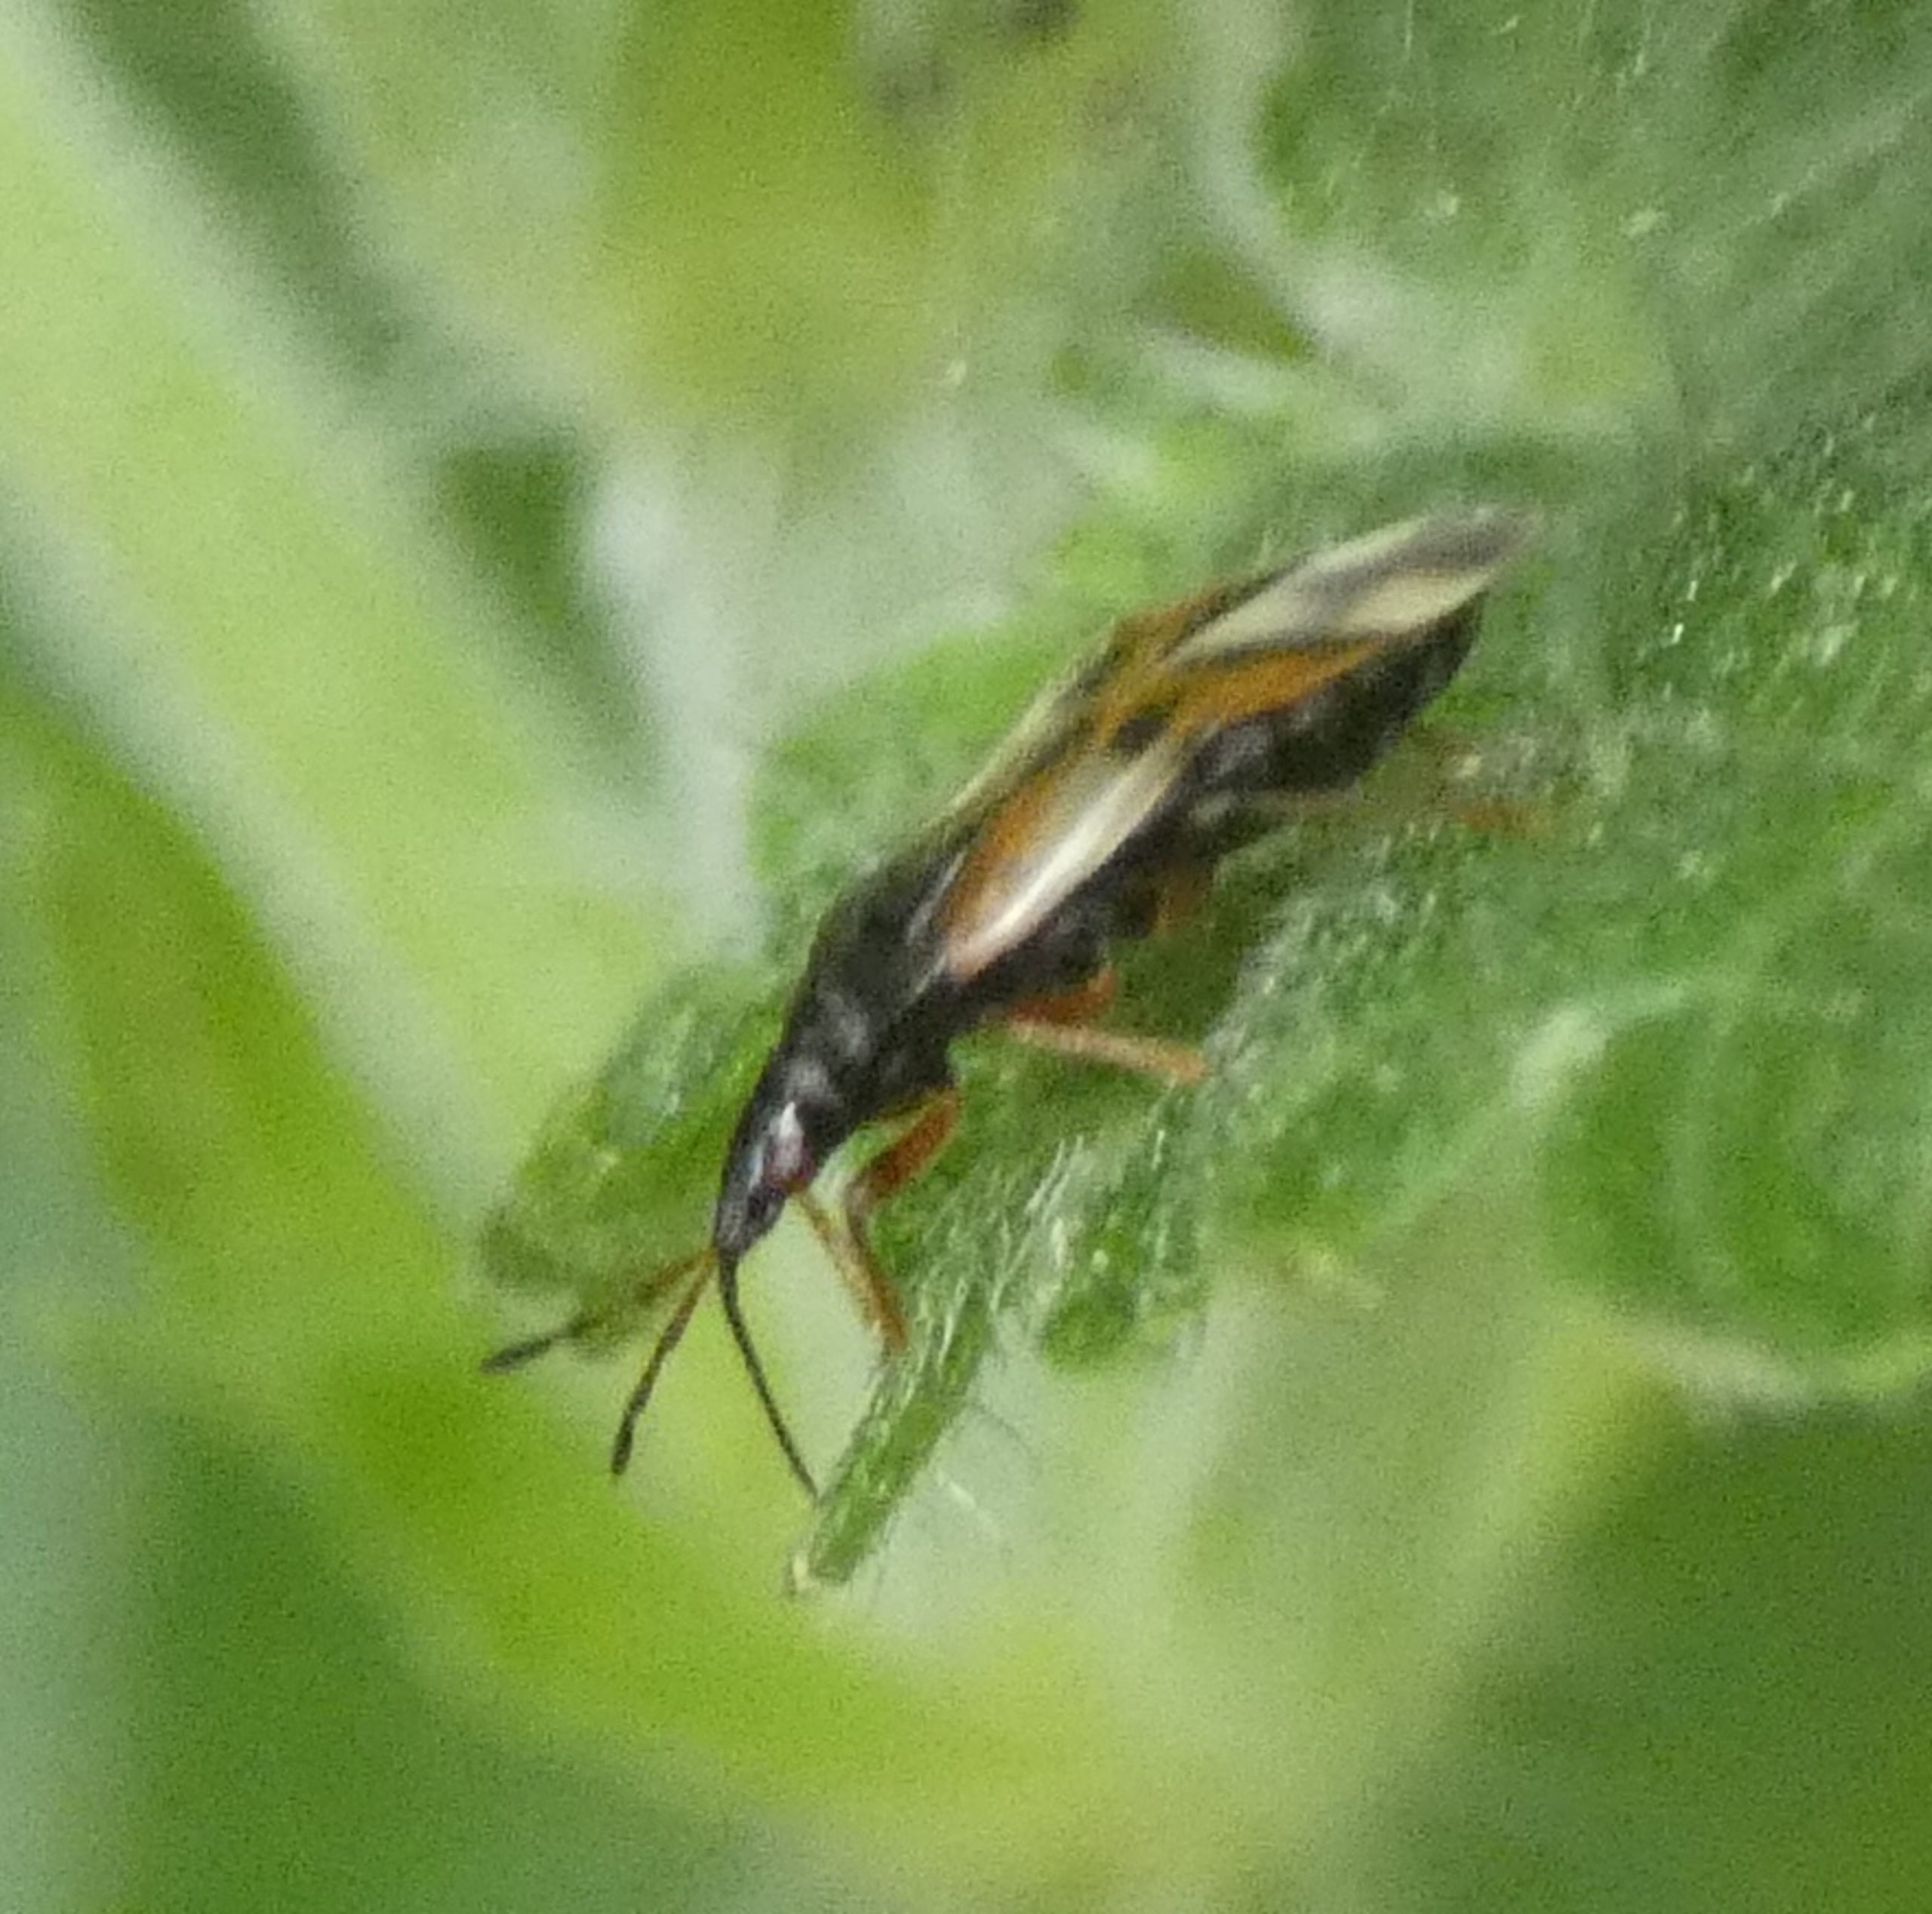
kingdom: Animalia
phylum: Arthropoda
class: Insecta
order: Hemiptera
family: Anthocoridae
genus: Anthocoris
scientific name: Anthocoris nemorum
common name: Skinnende bladlustæge
